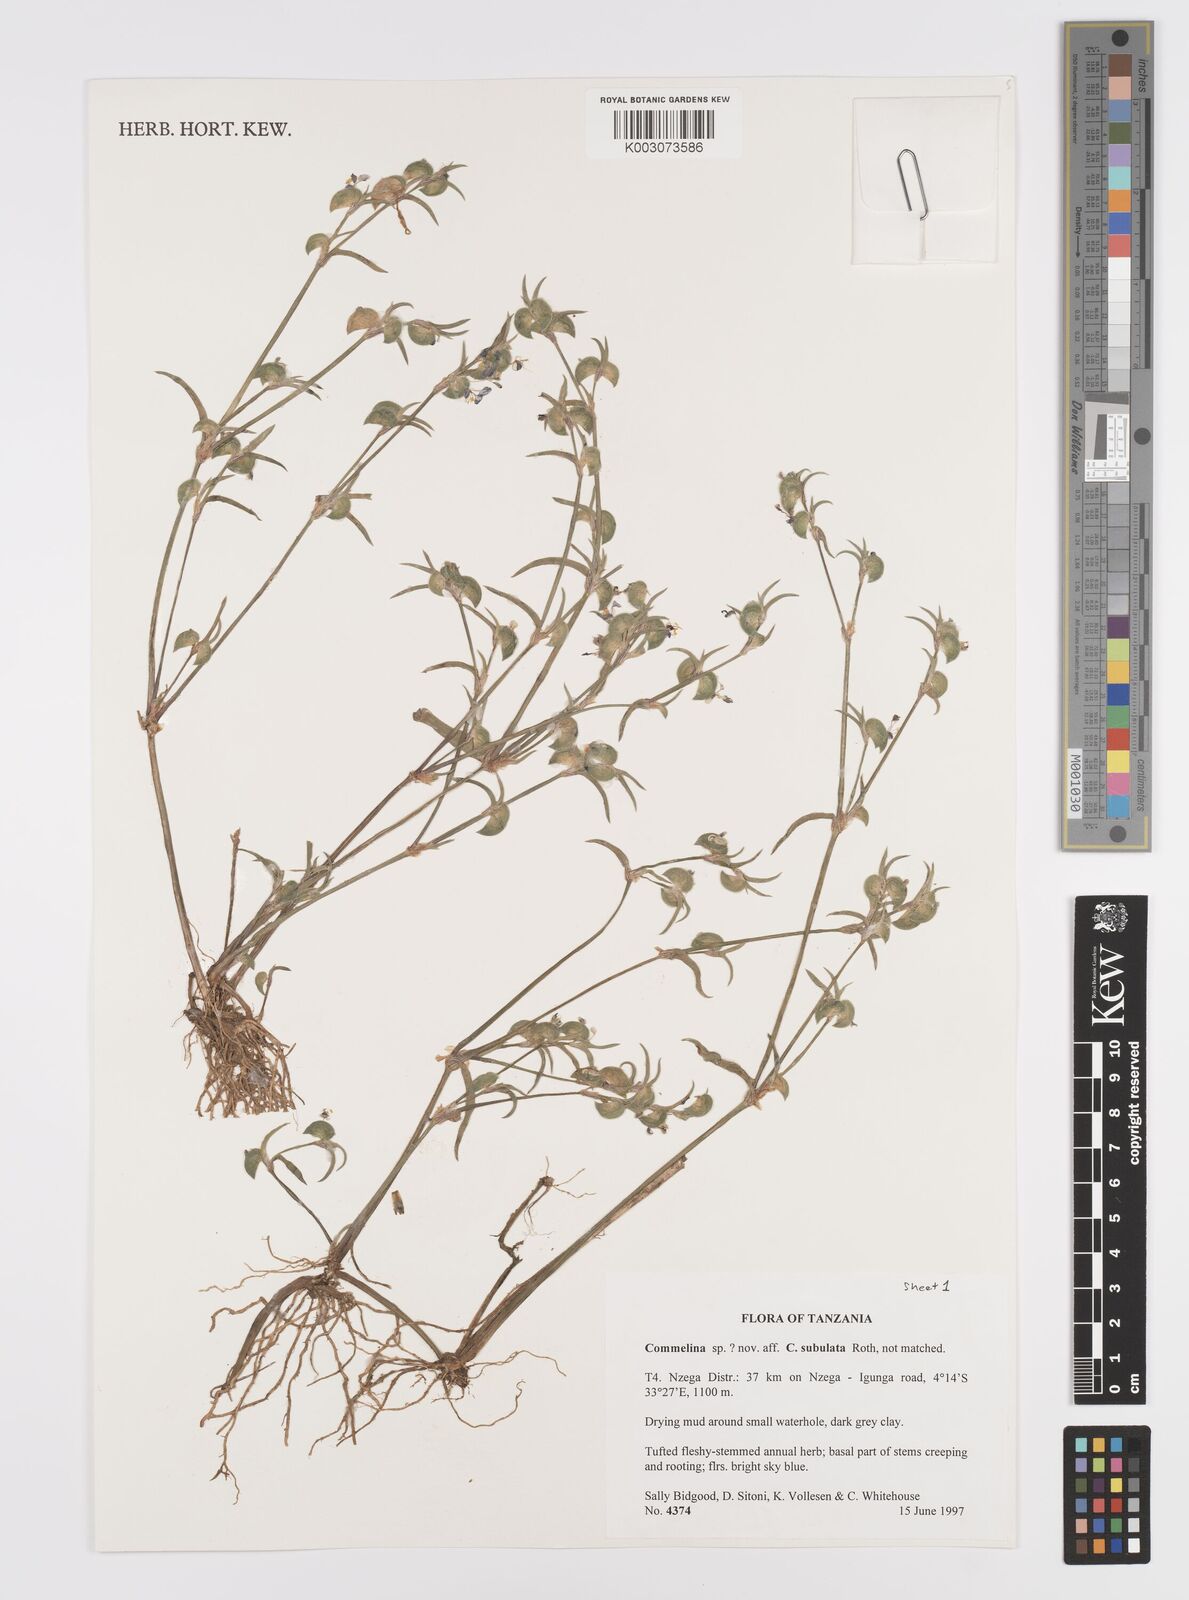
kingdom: Plantae
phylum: Tracheophyta
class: Liliopsida
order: Commelinales
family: Commelinaceae
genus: Commelina
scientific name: Commelina subulata
